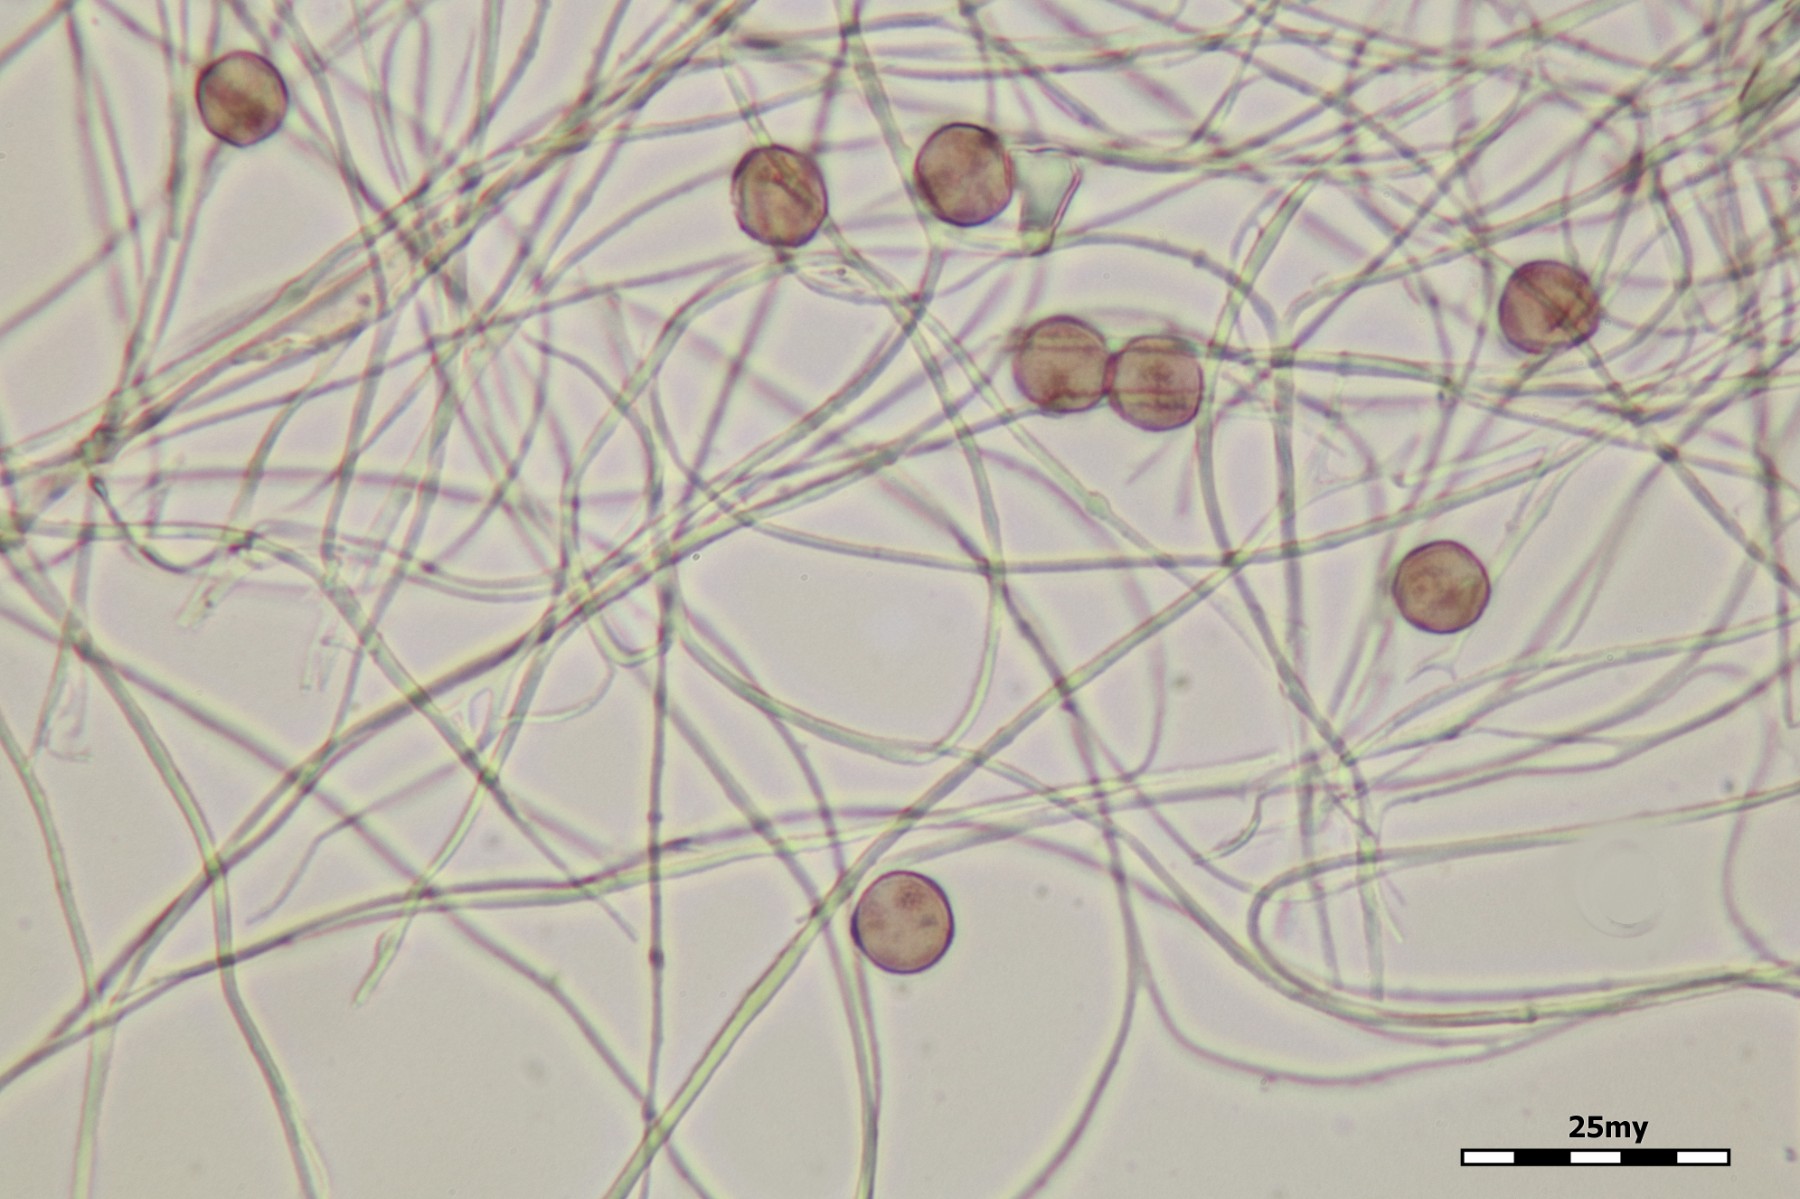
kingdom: Protozoa
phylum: Mycetozoa
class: Myxomycetes
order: Physarales
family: Didymiaceae
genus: Diderma
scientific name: Diderma hemisphaericum
